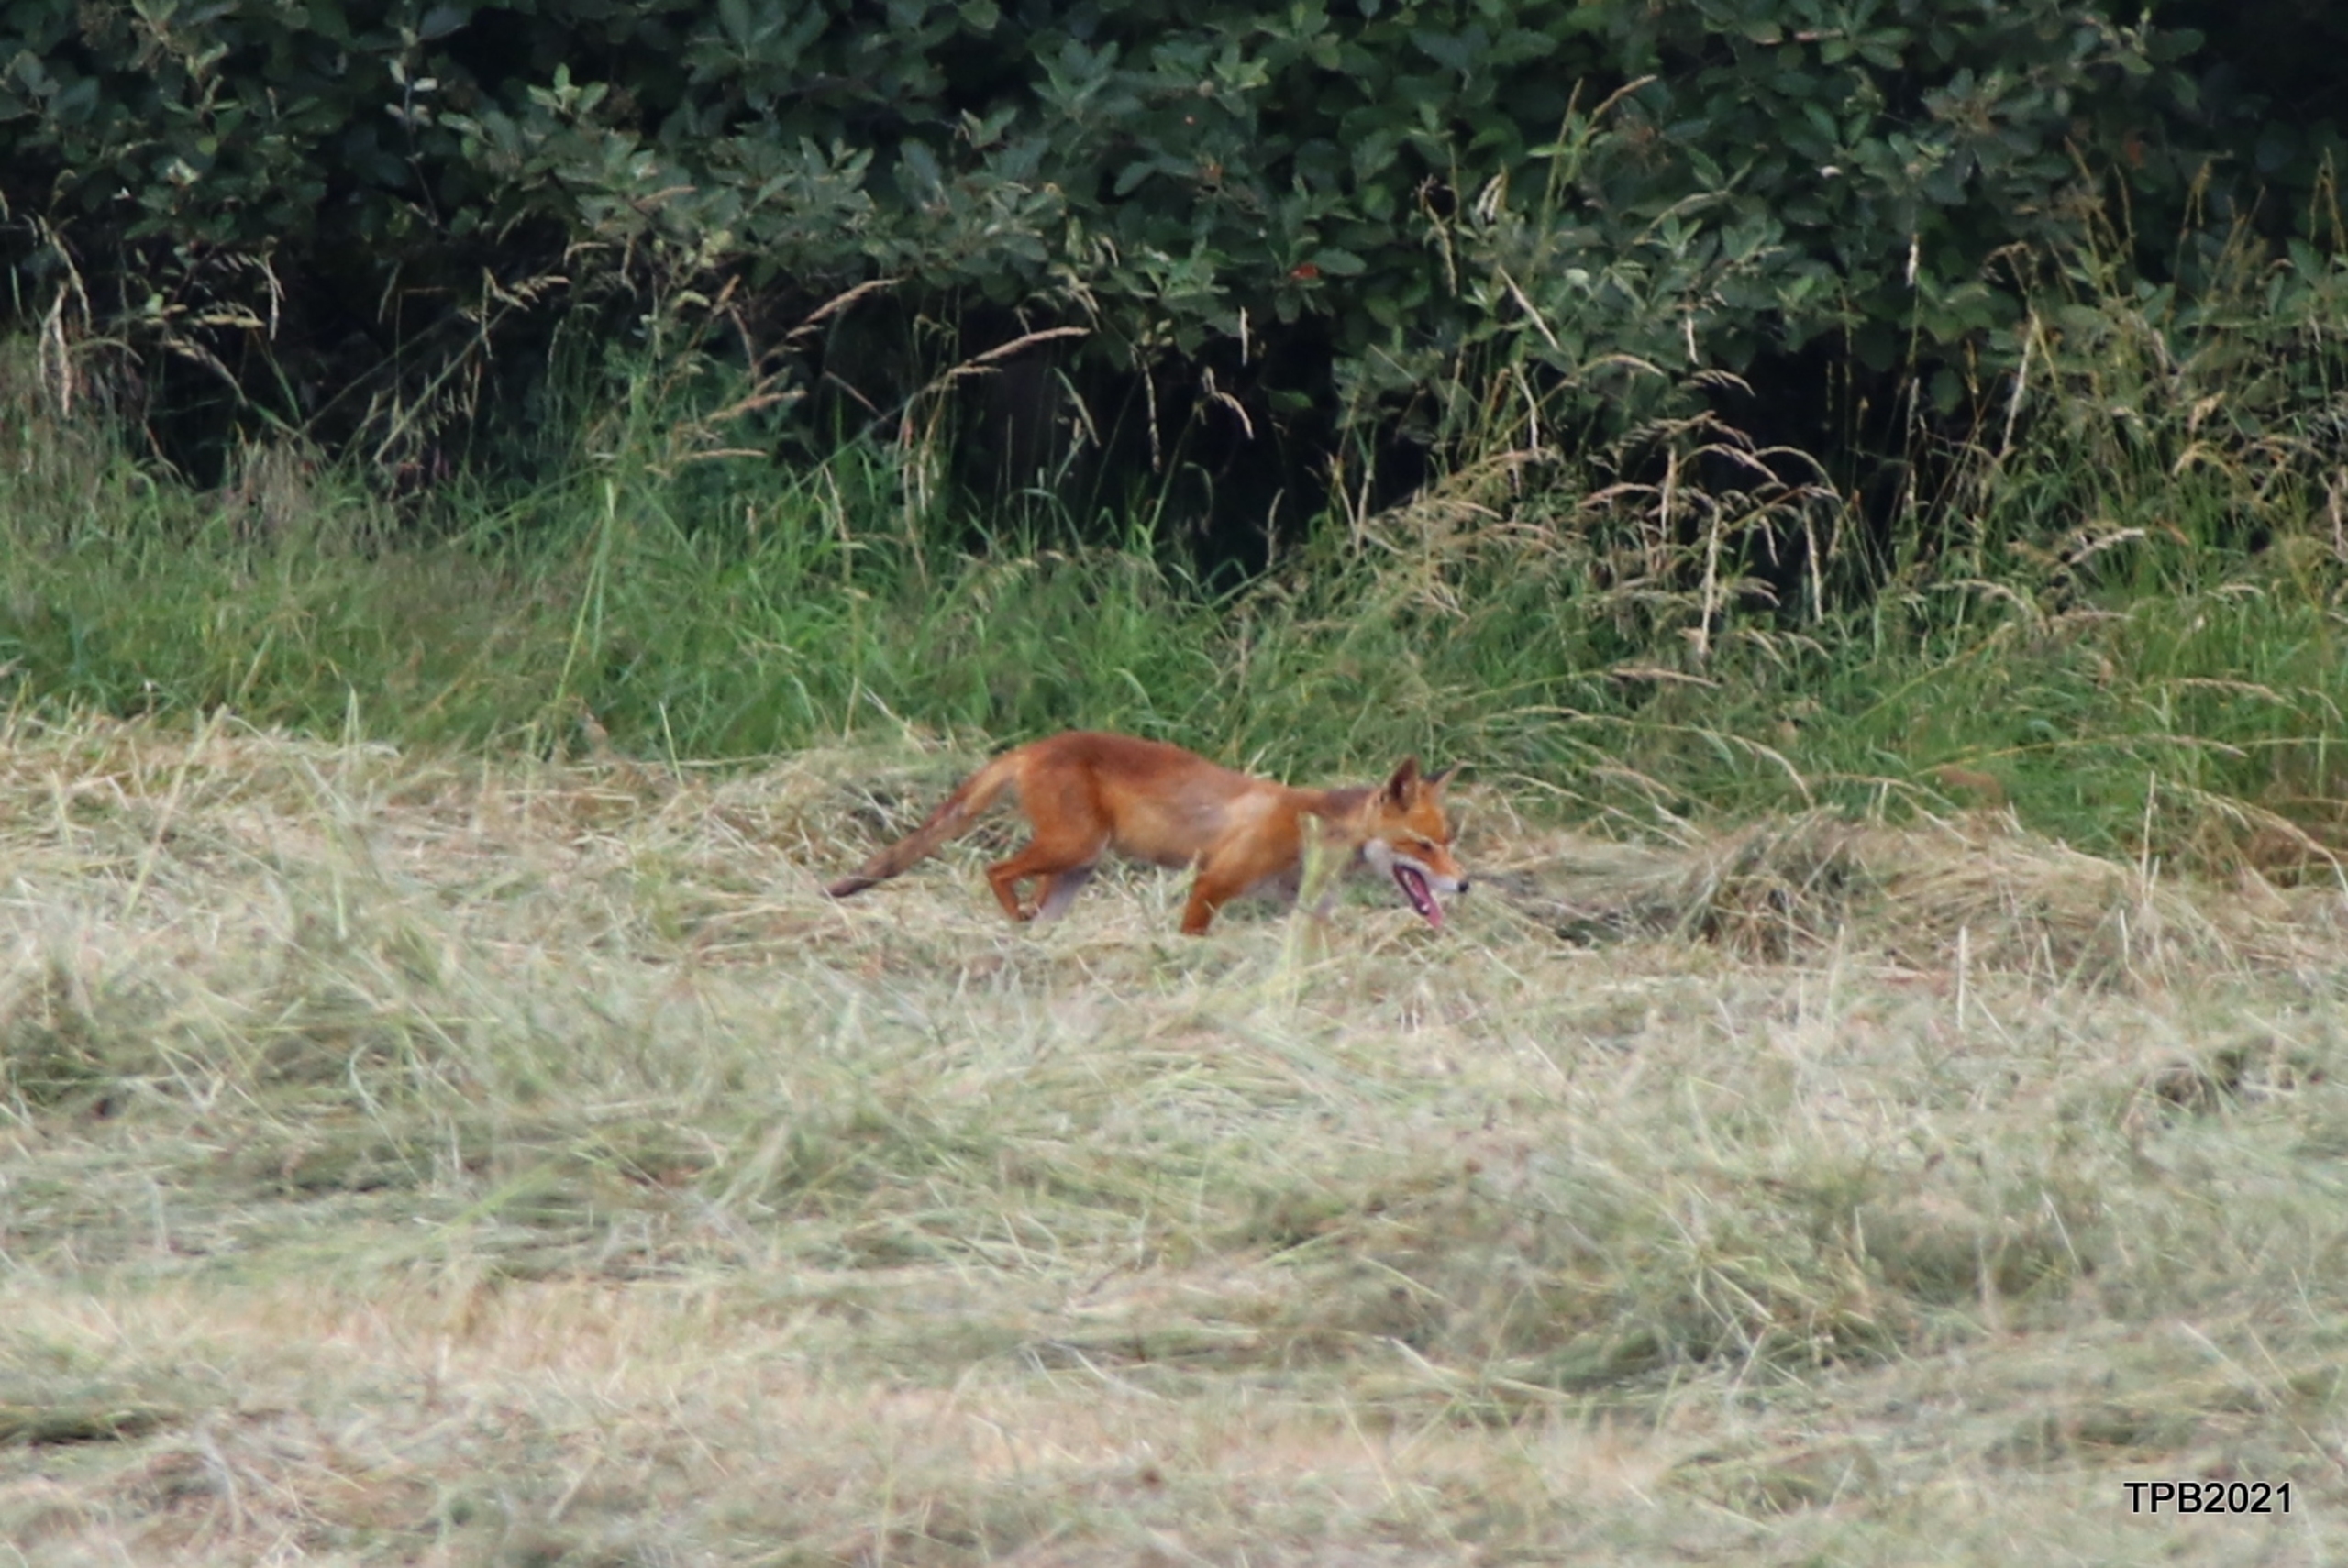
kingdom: Animalia
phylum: Chordata
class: Mammalia
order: Carnivora
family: Canidae
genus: Vulpes
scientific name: Vulpes vulpes
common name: Ræv
